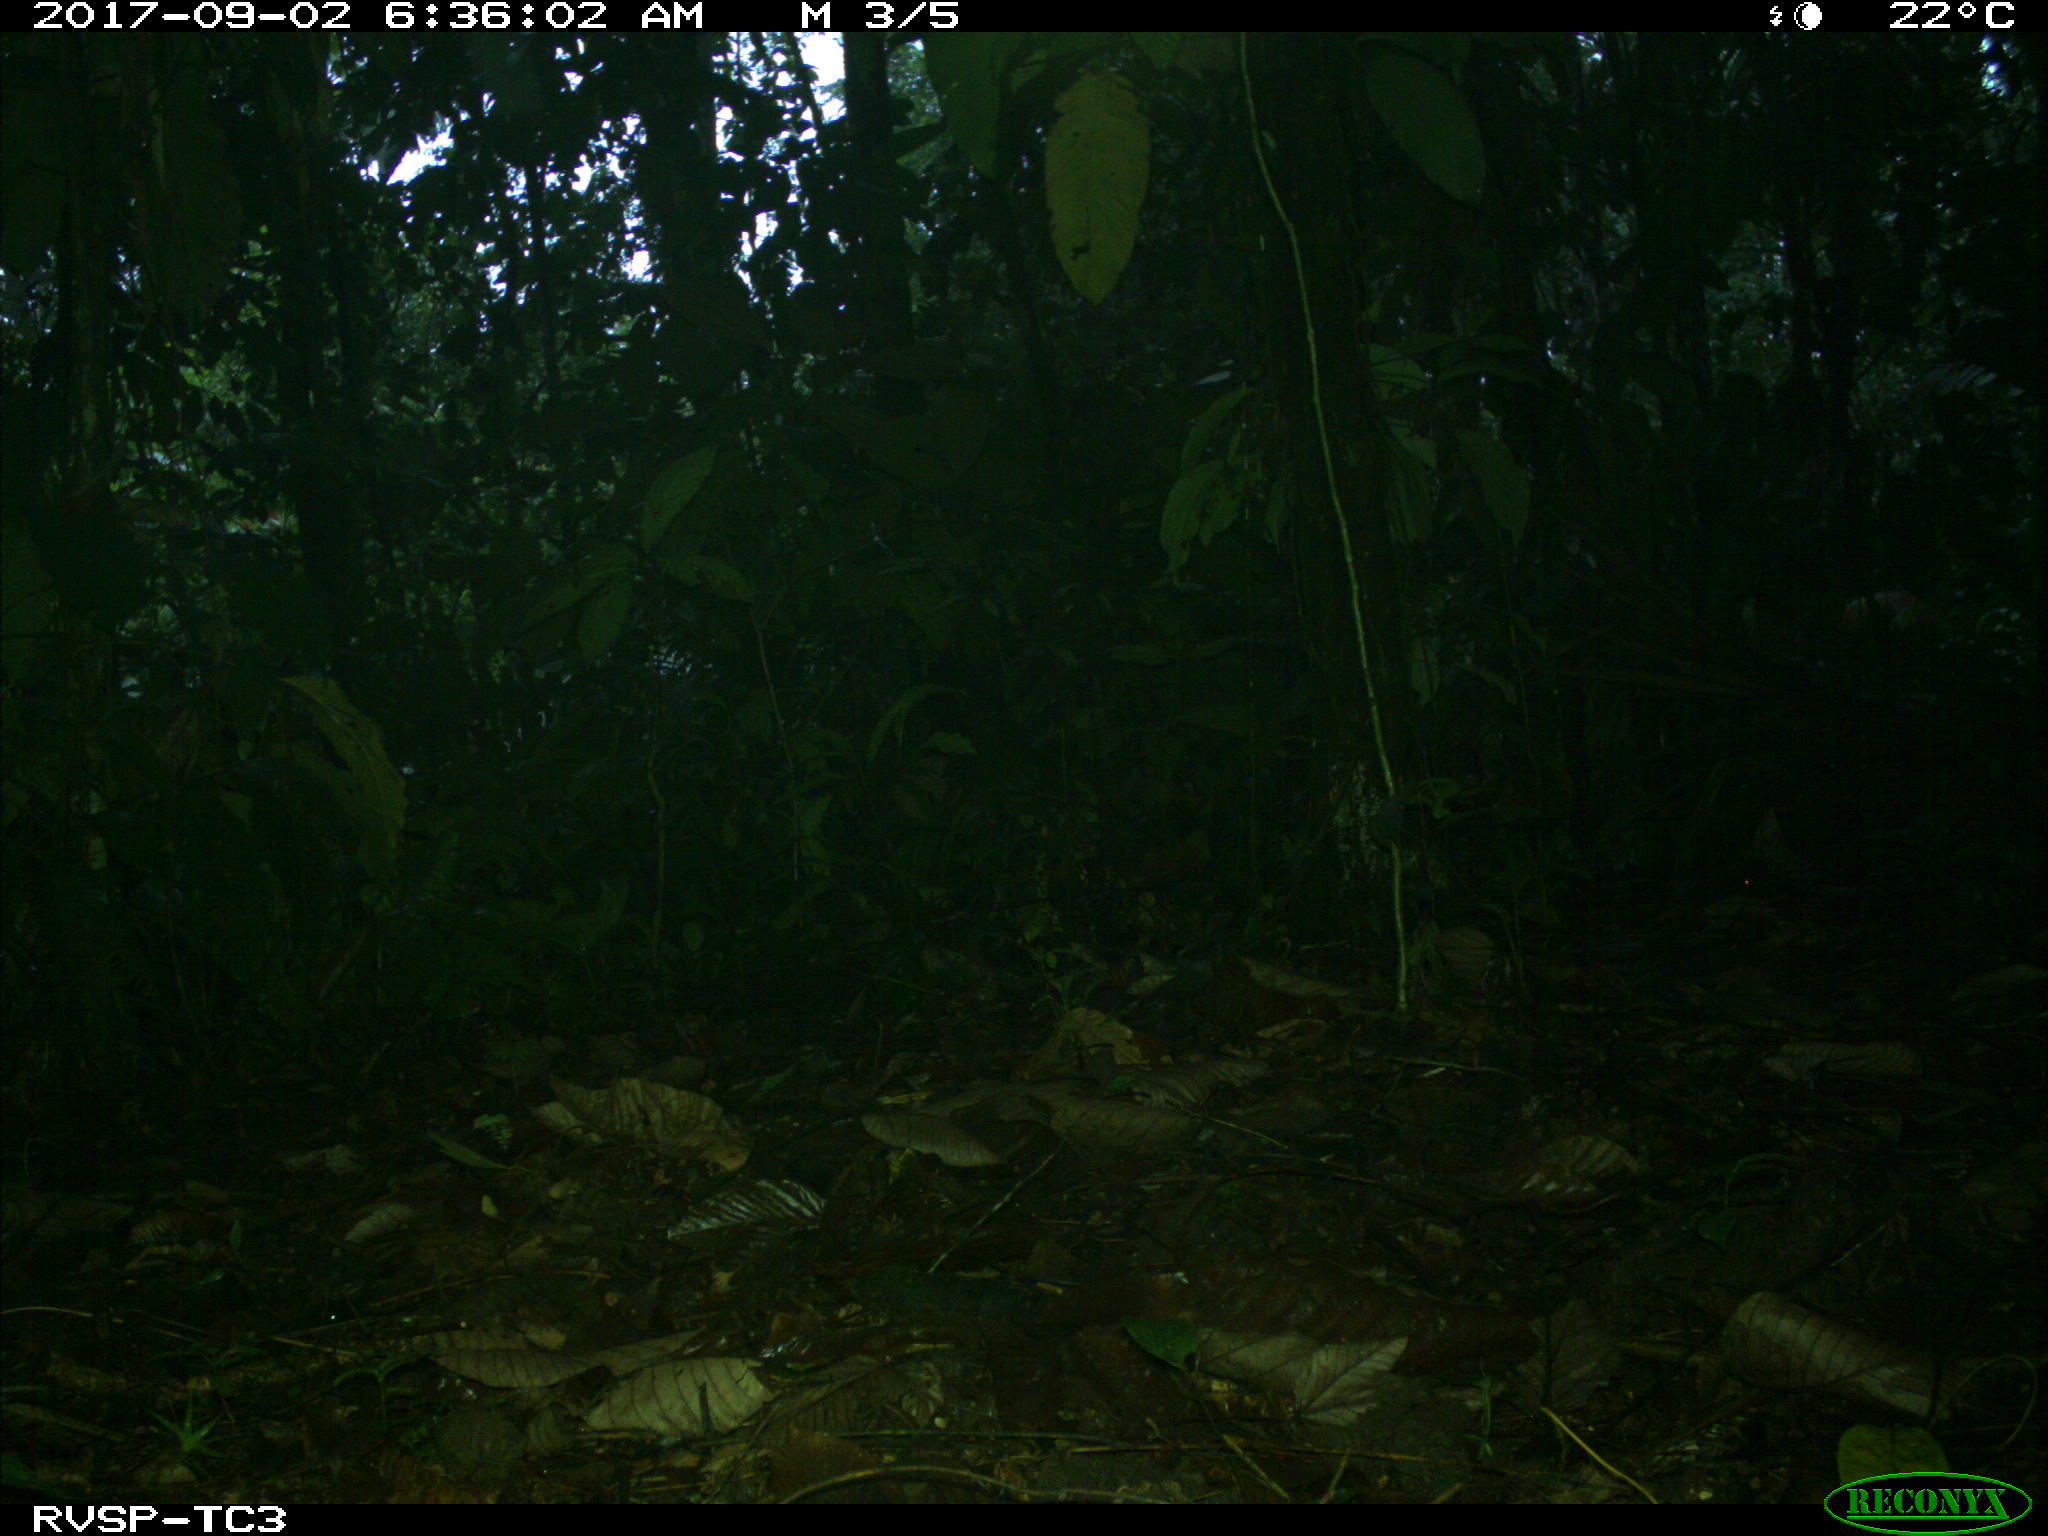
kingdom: Animalia
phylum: Chordata
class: Mammalia
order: Rodentia
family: Dasyproctidae
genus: Dasyprocta
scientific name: Dasyprocta punctata
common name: Central american agouti
